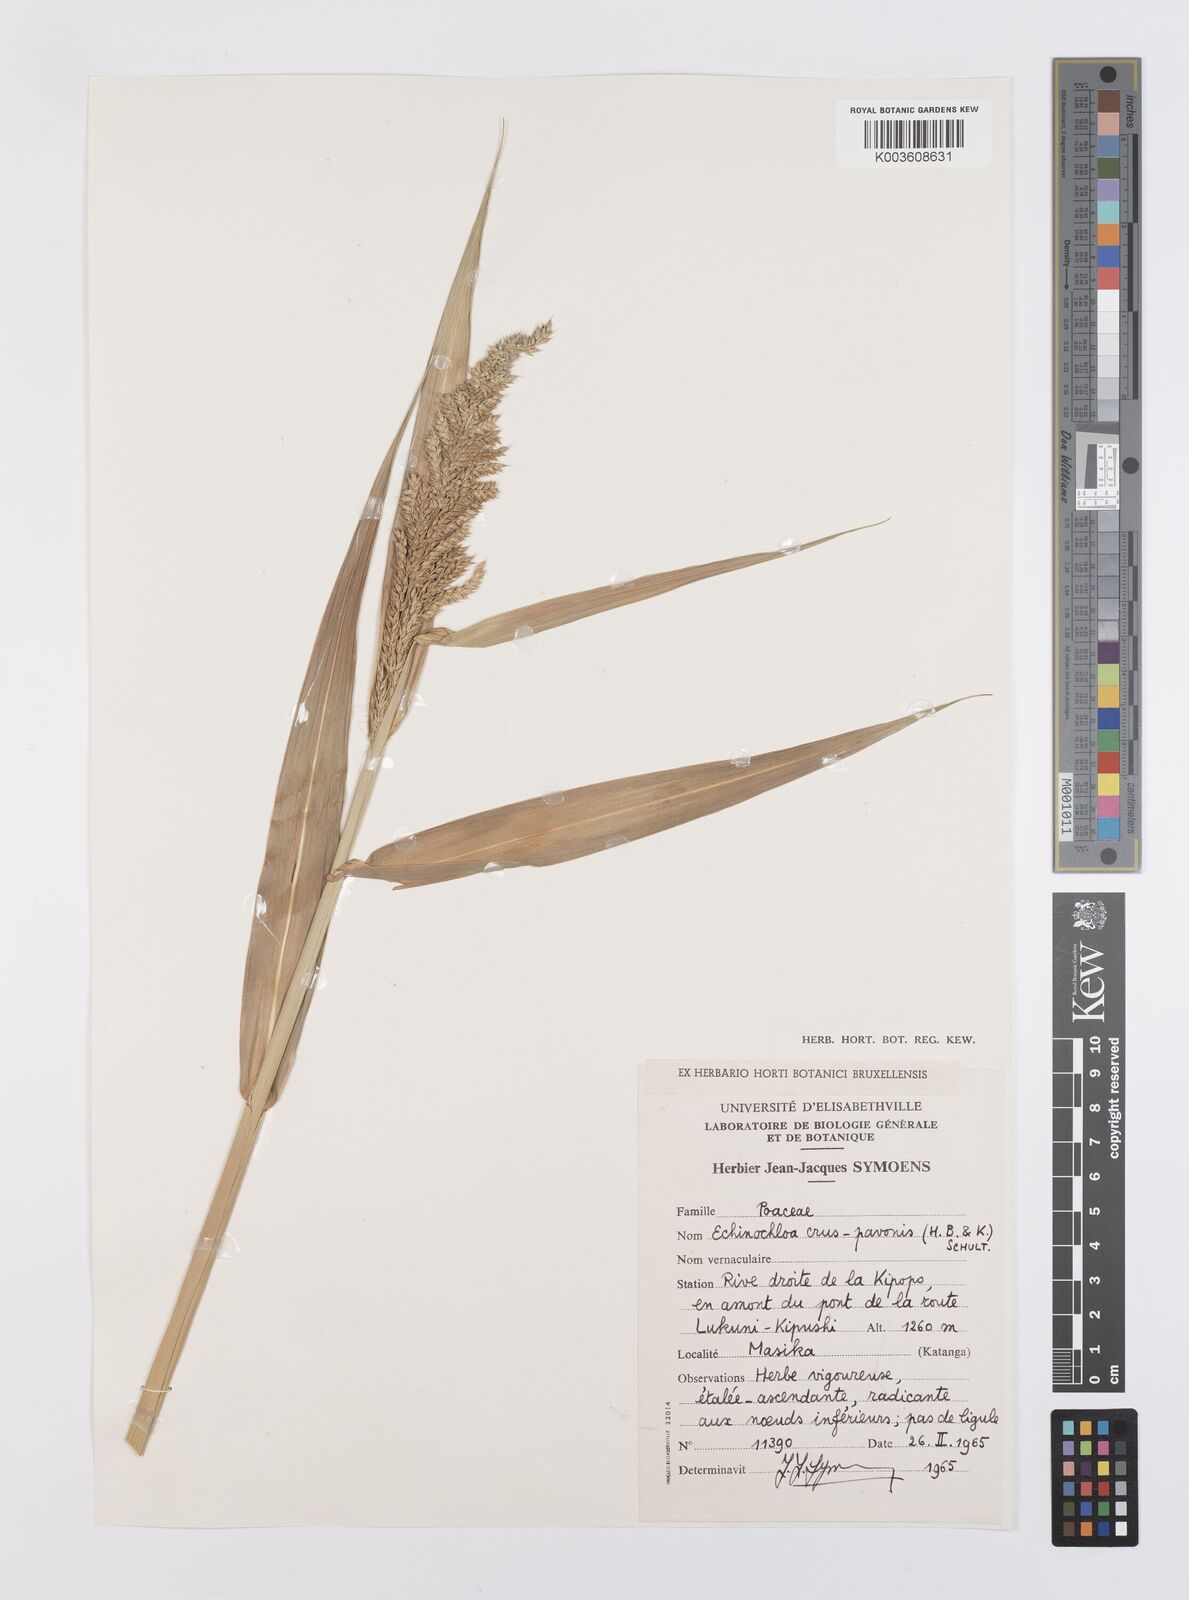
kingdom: Plantae
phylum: Tracheophyta
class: Liliopsida
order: Poales
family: Poaceae
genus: Echinochloa
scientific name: Echinochloa crus-pavonis
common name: Gulf cockspur grass
